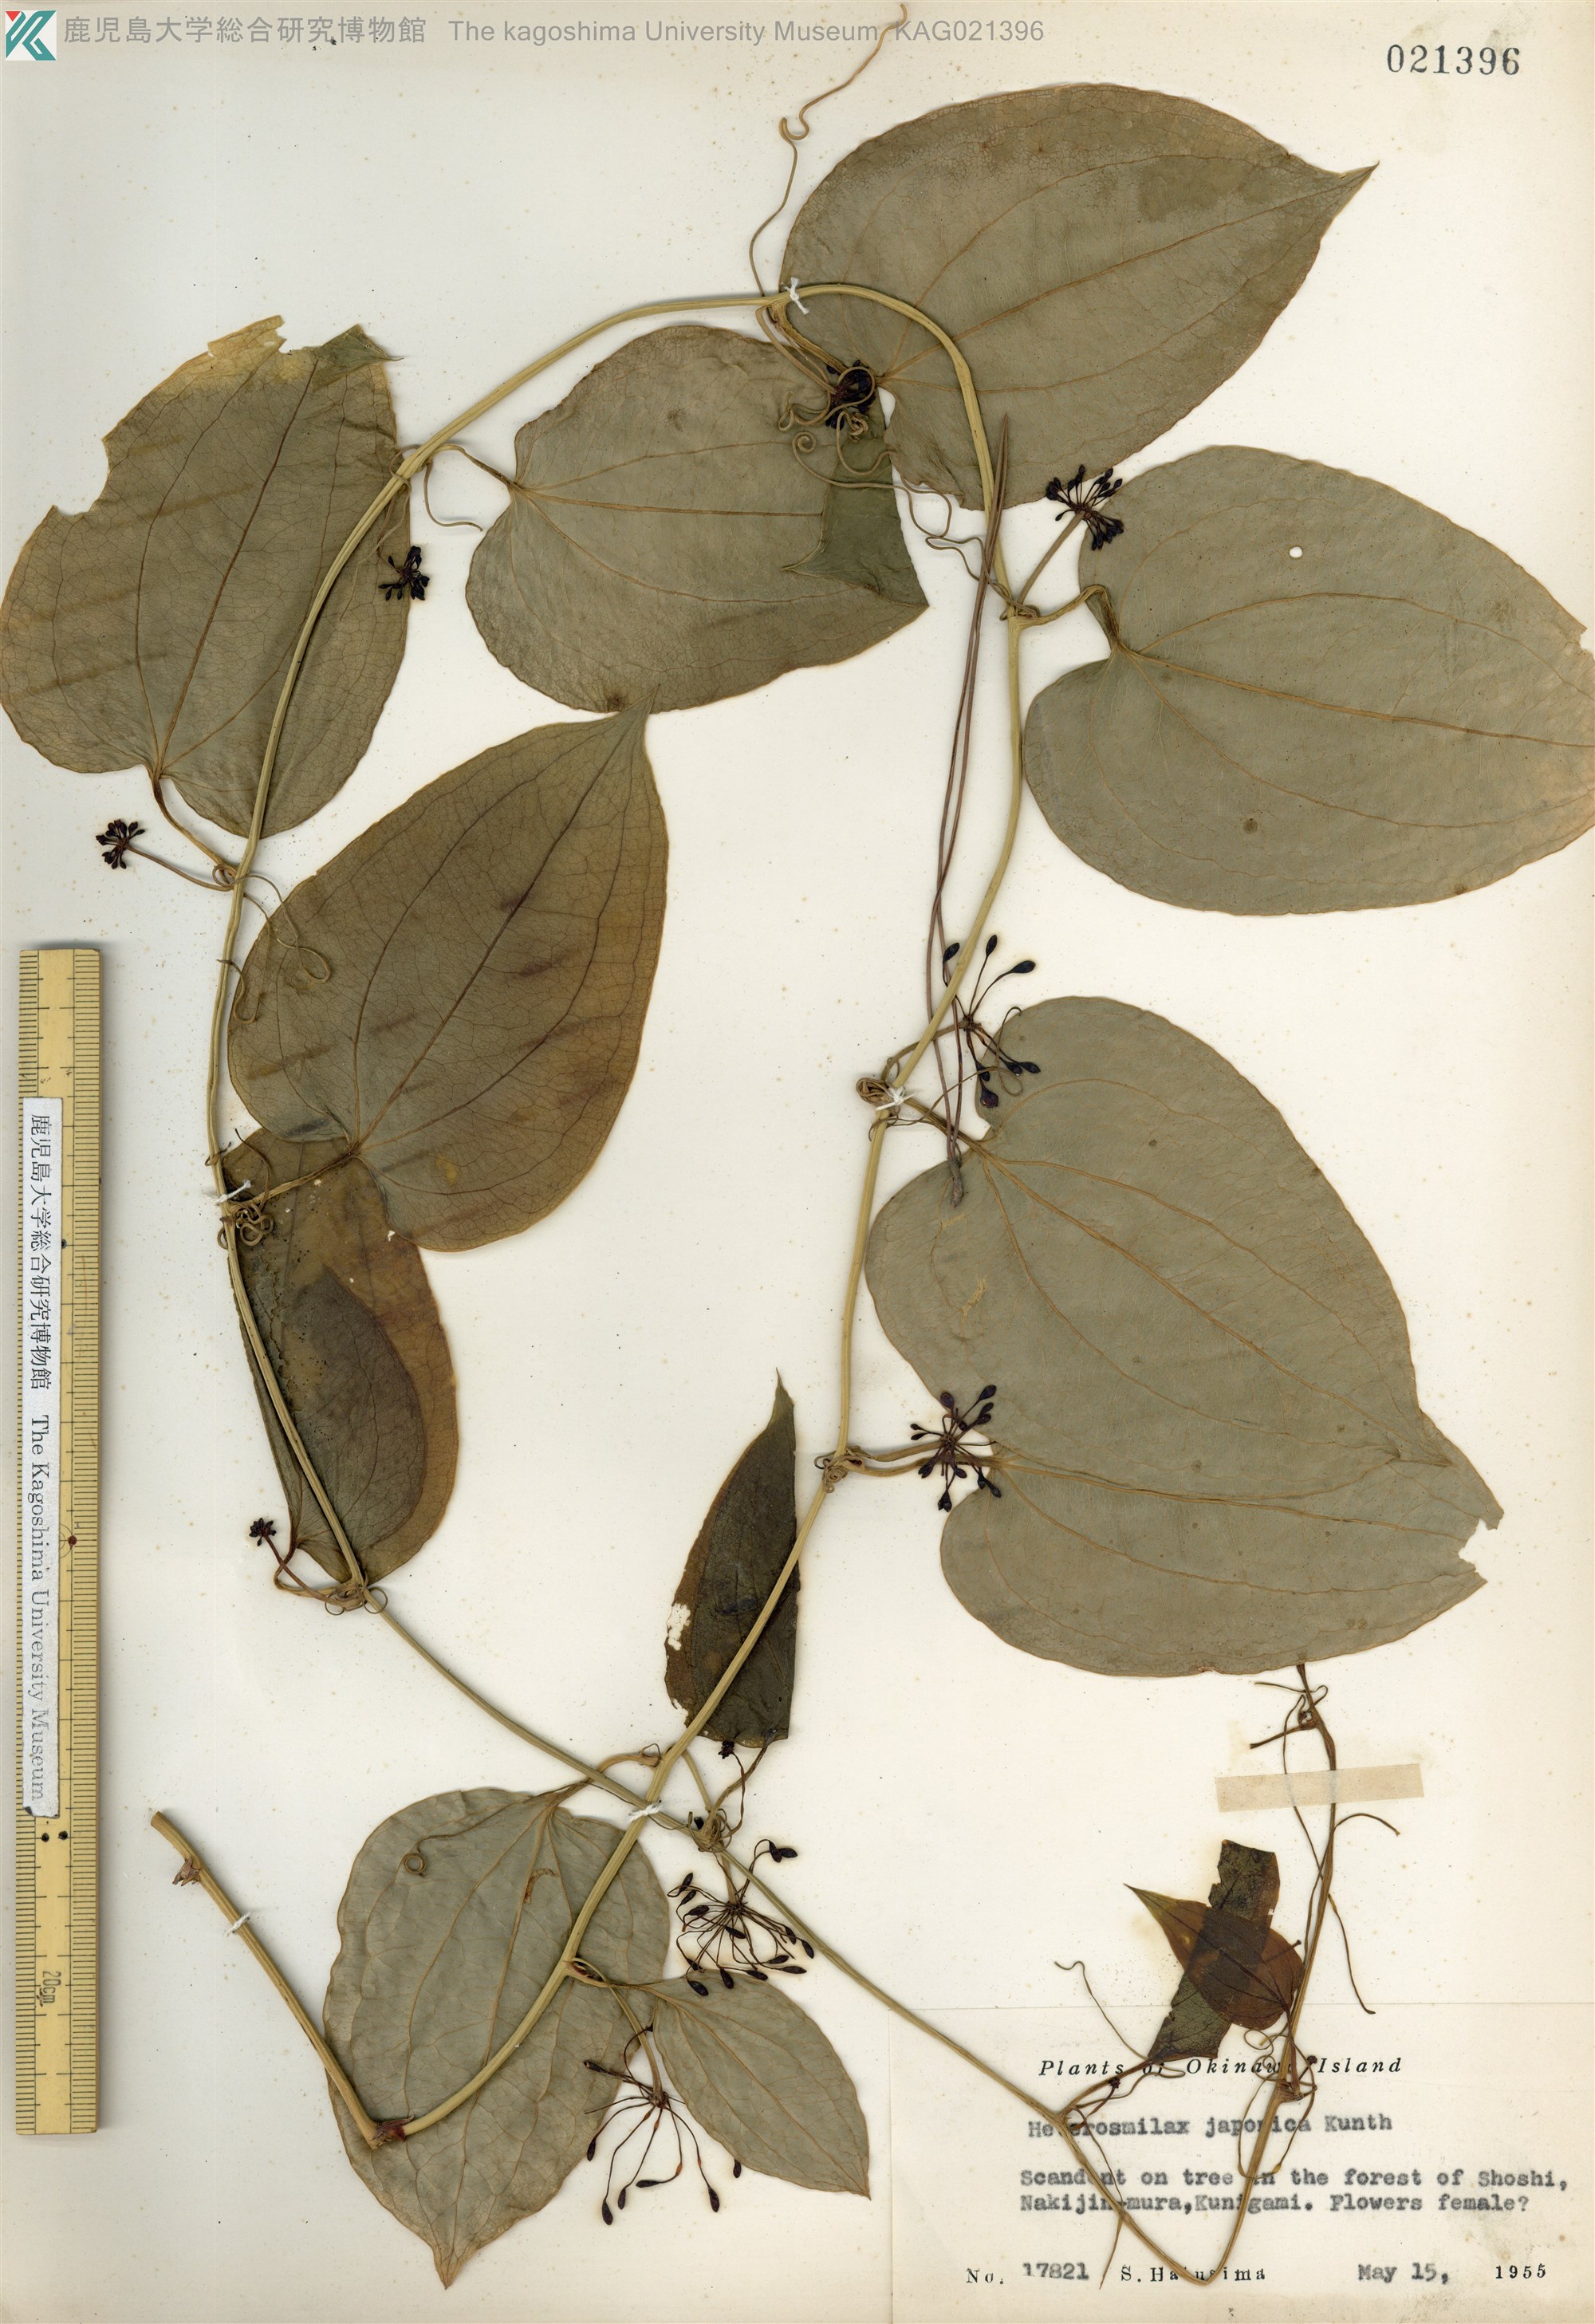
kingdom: Plantae
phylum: Tracheophyta
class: Liliopsida
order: Liliales
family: Smilacaceae
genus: Smilax
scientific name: Smilax insularis
